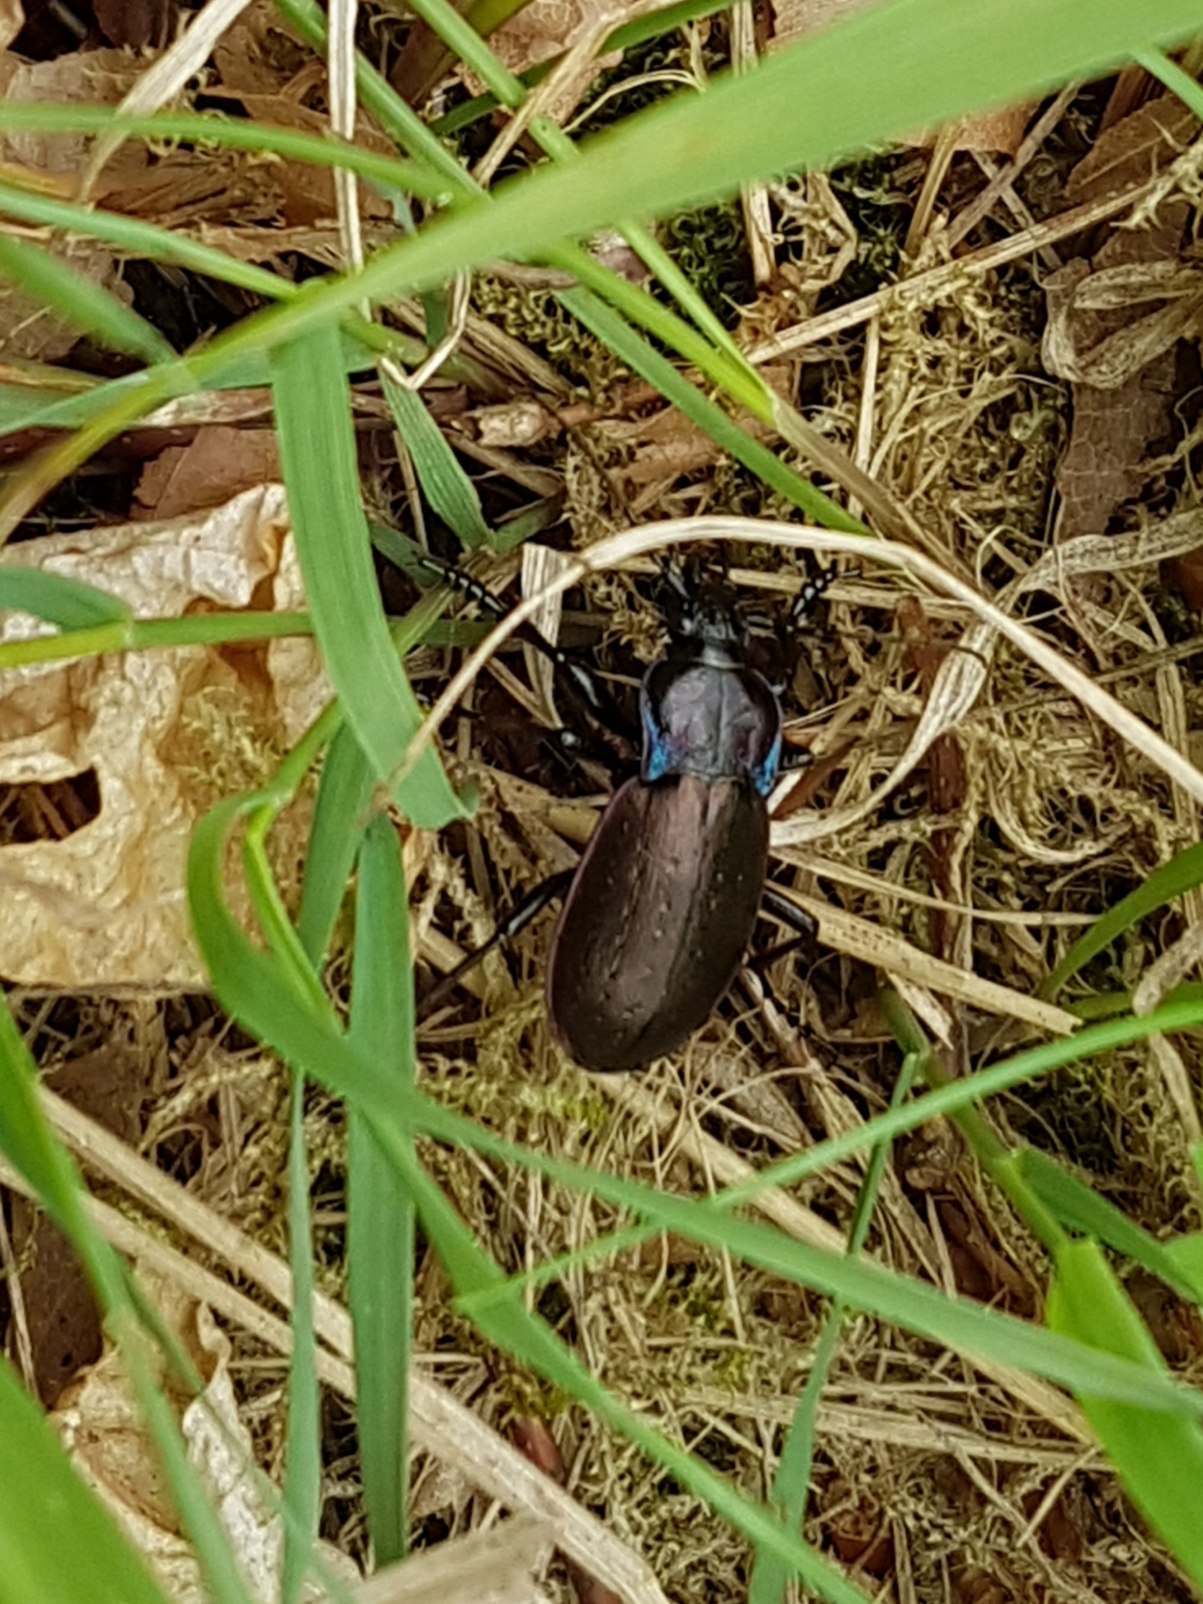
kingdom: Animalia
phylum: Arthropoda
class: Insecta
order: Coleoptera
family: Carabidae
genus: Carabus
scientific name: Carabus nemoralis
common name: Kratløber
